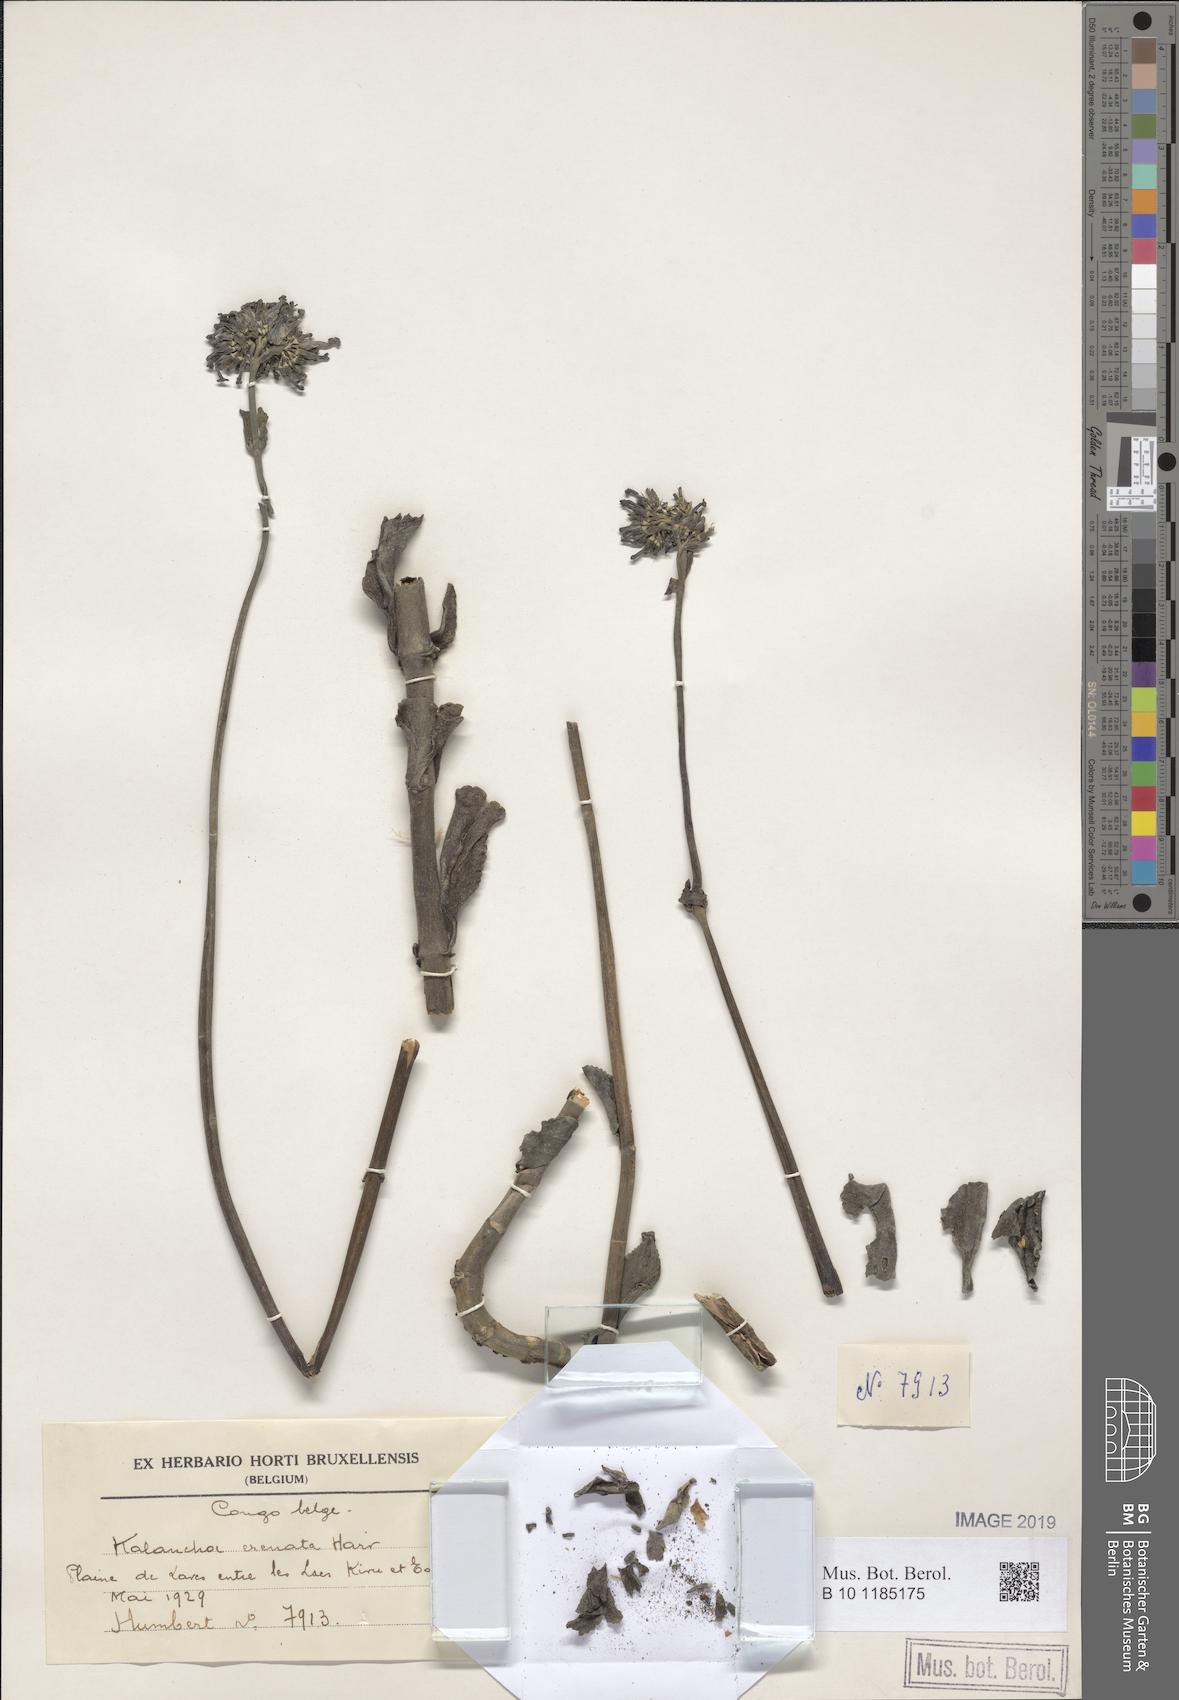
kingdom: Plantae
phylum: Tracheophyta
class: Magnoliopsida
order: Saxifragales
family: Crassulaceae
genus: Kalanchoe
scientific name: Kalanchoe crenata
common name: Neverdie
